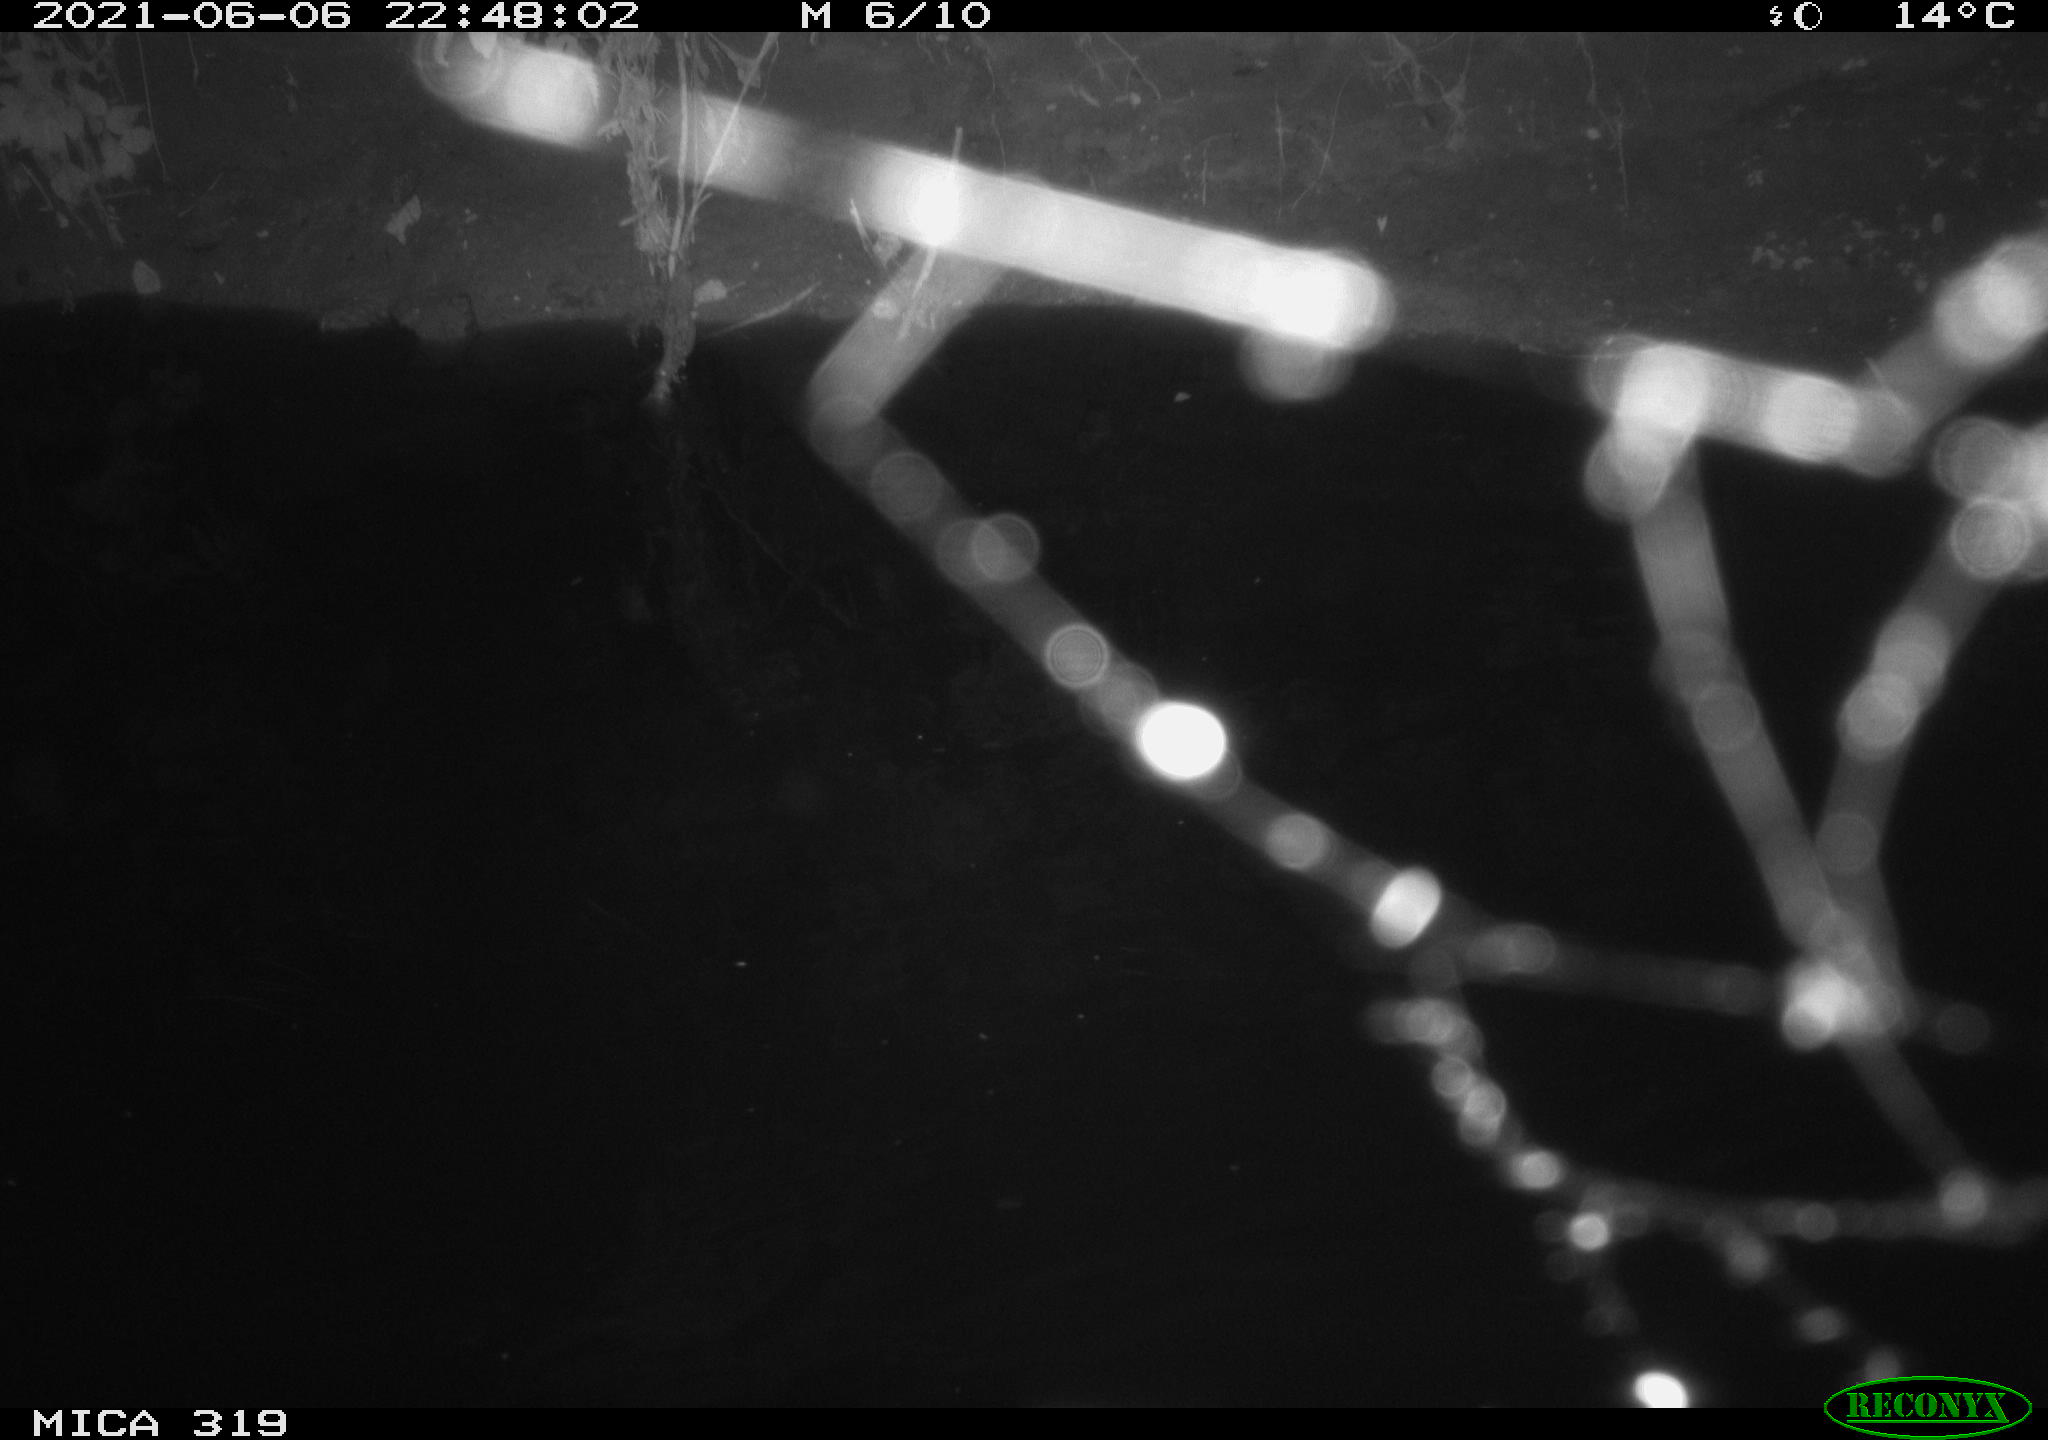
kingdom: Animalia
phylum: Chordata
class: Aves
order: Anseriformes
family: Anatidae
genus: Anas
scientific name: Anas platyrhynchos
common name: Mallard
